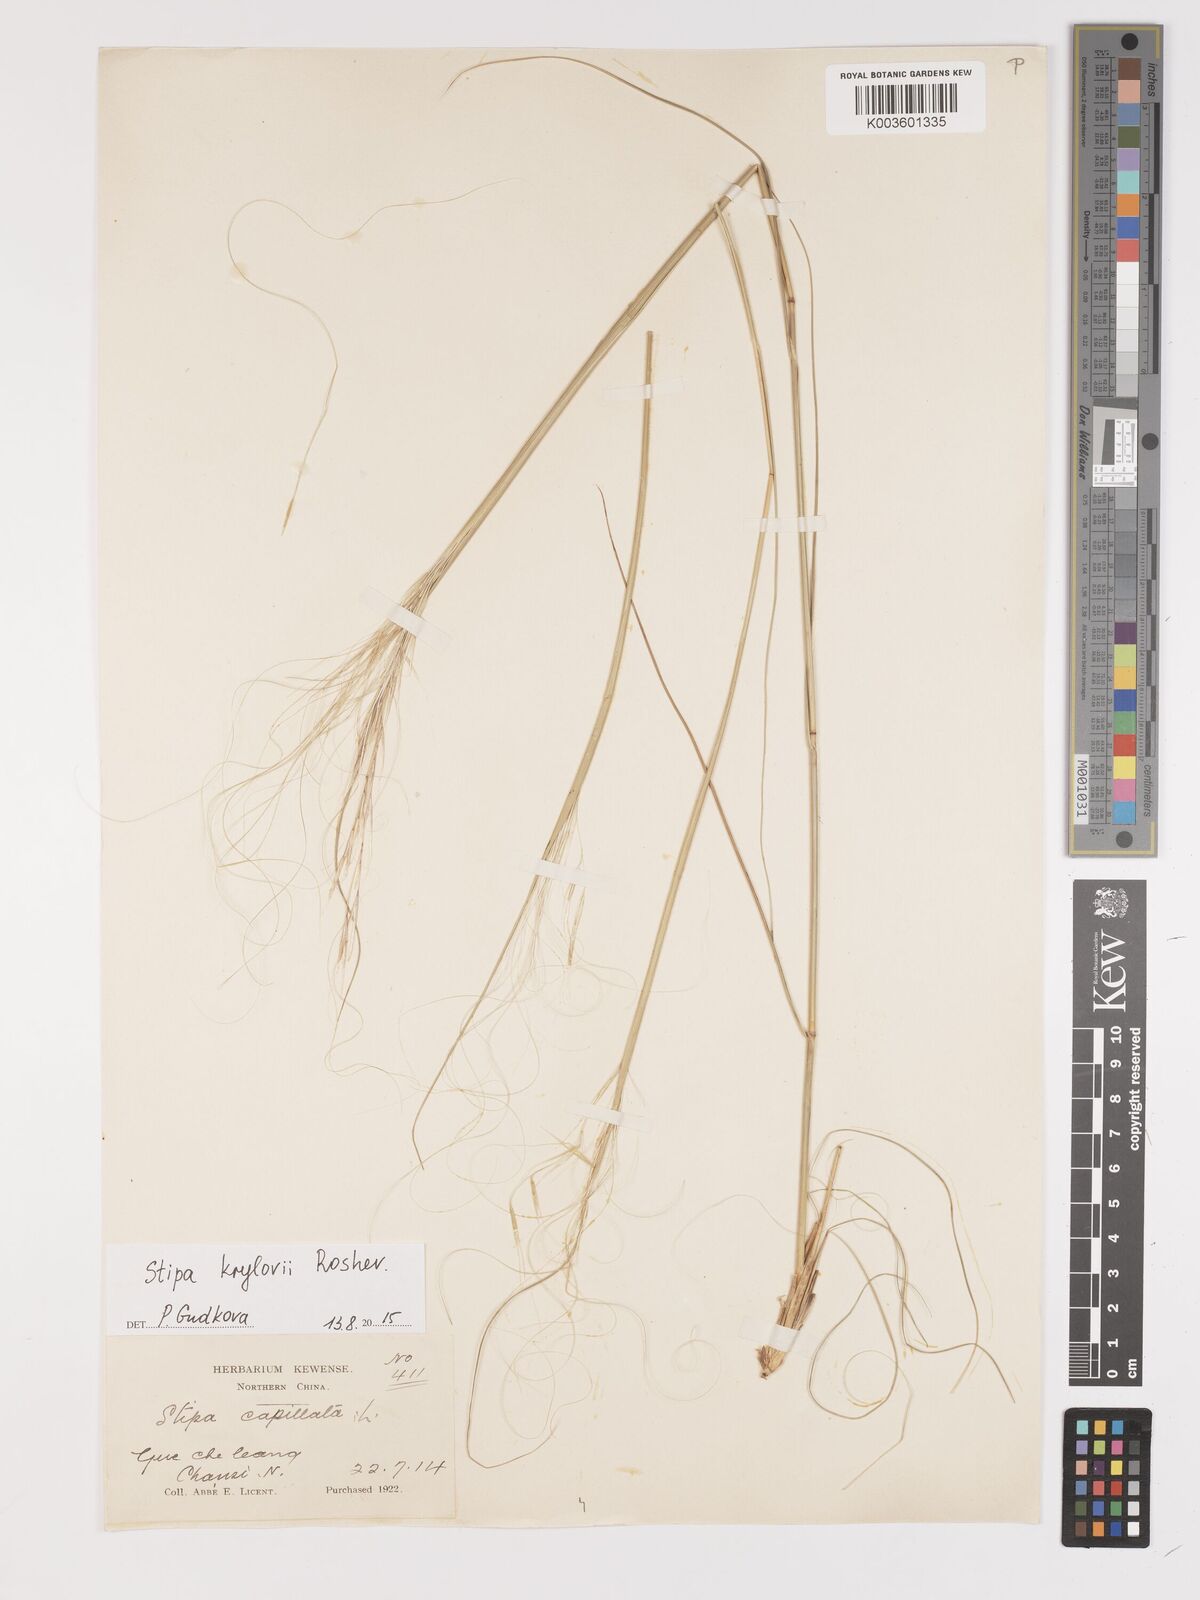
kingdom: Plantae
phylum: Tracheophyta
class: Liliopsida
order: Poales
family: Poaceae
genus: Stipa
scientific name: Stipa krylovii
